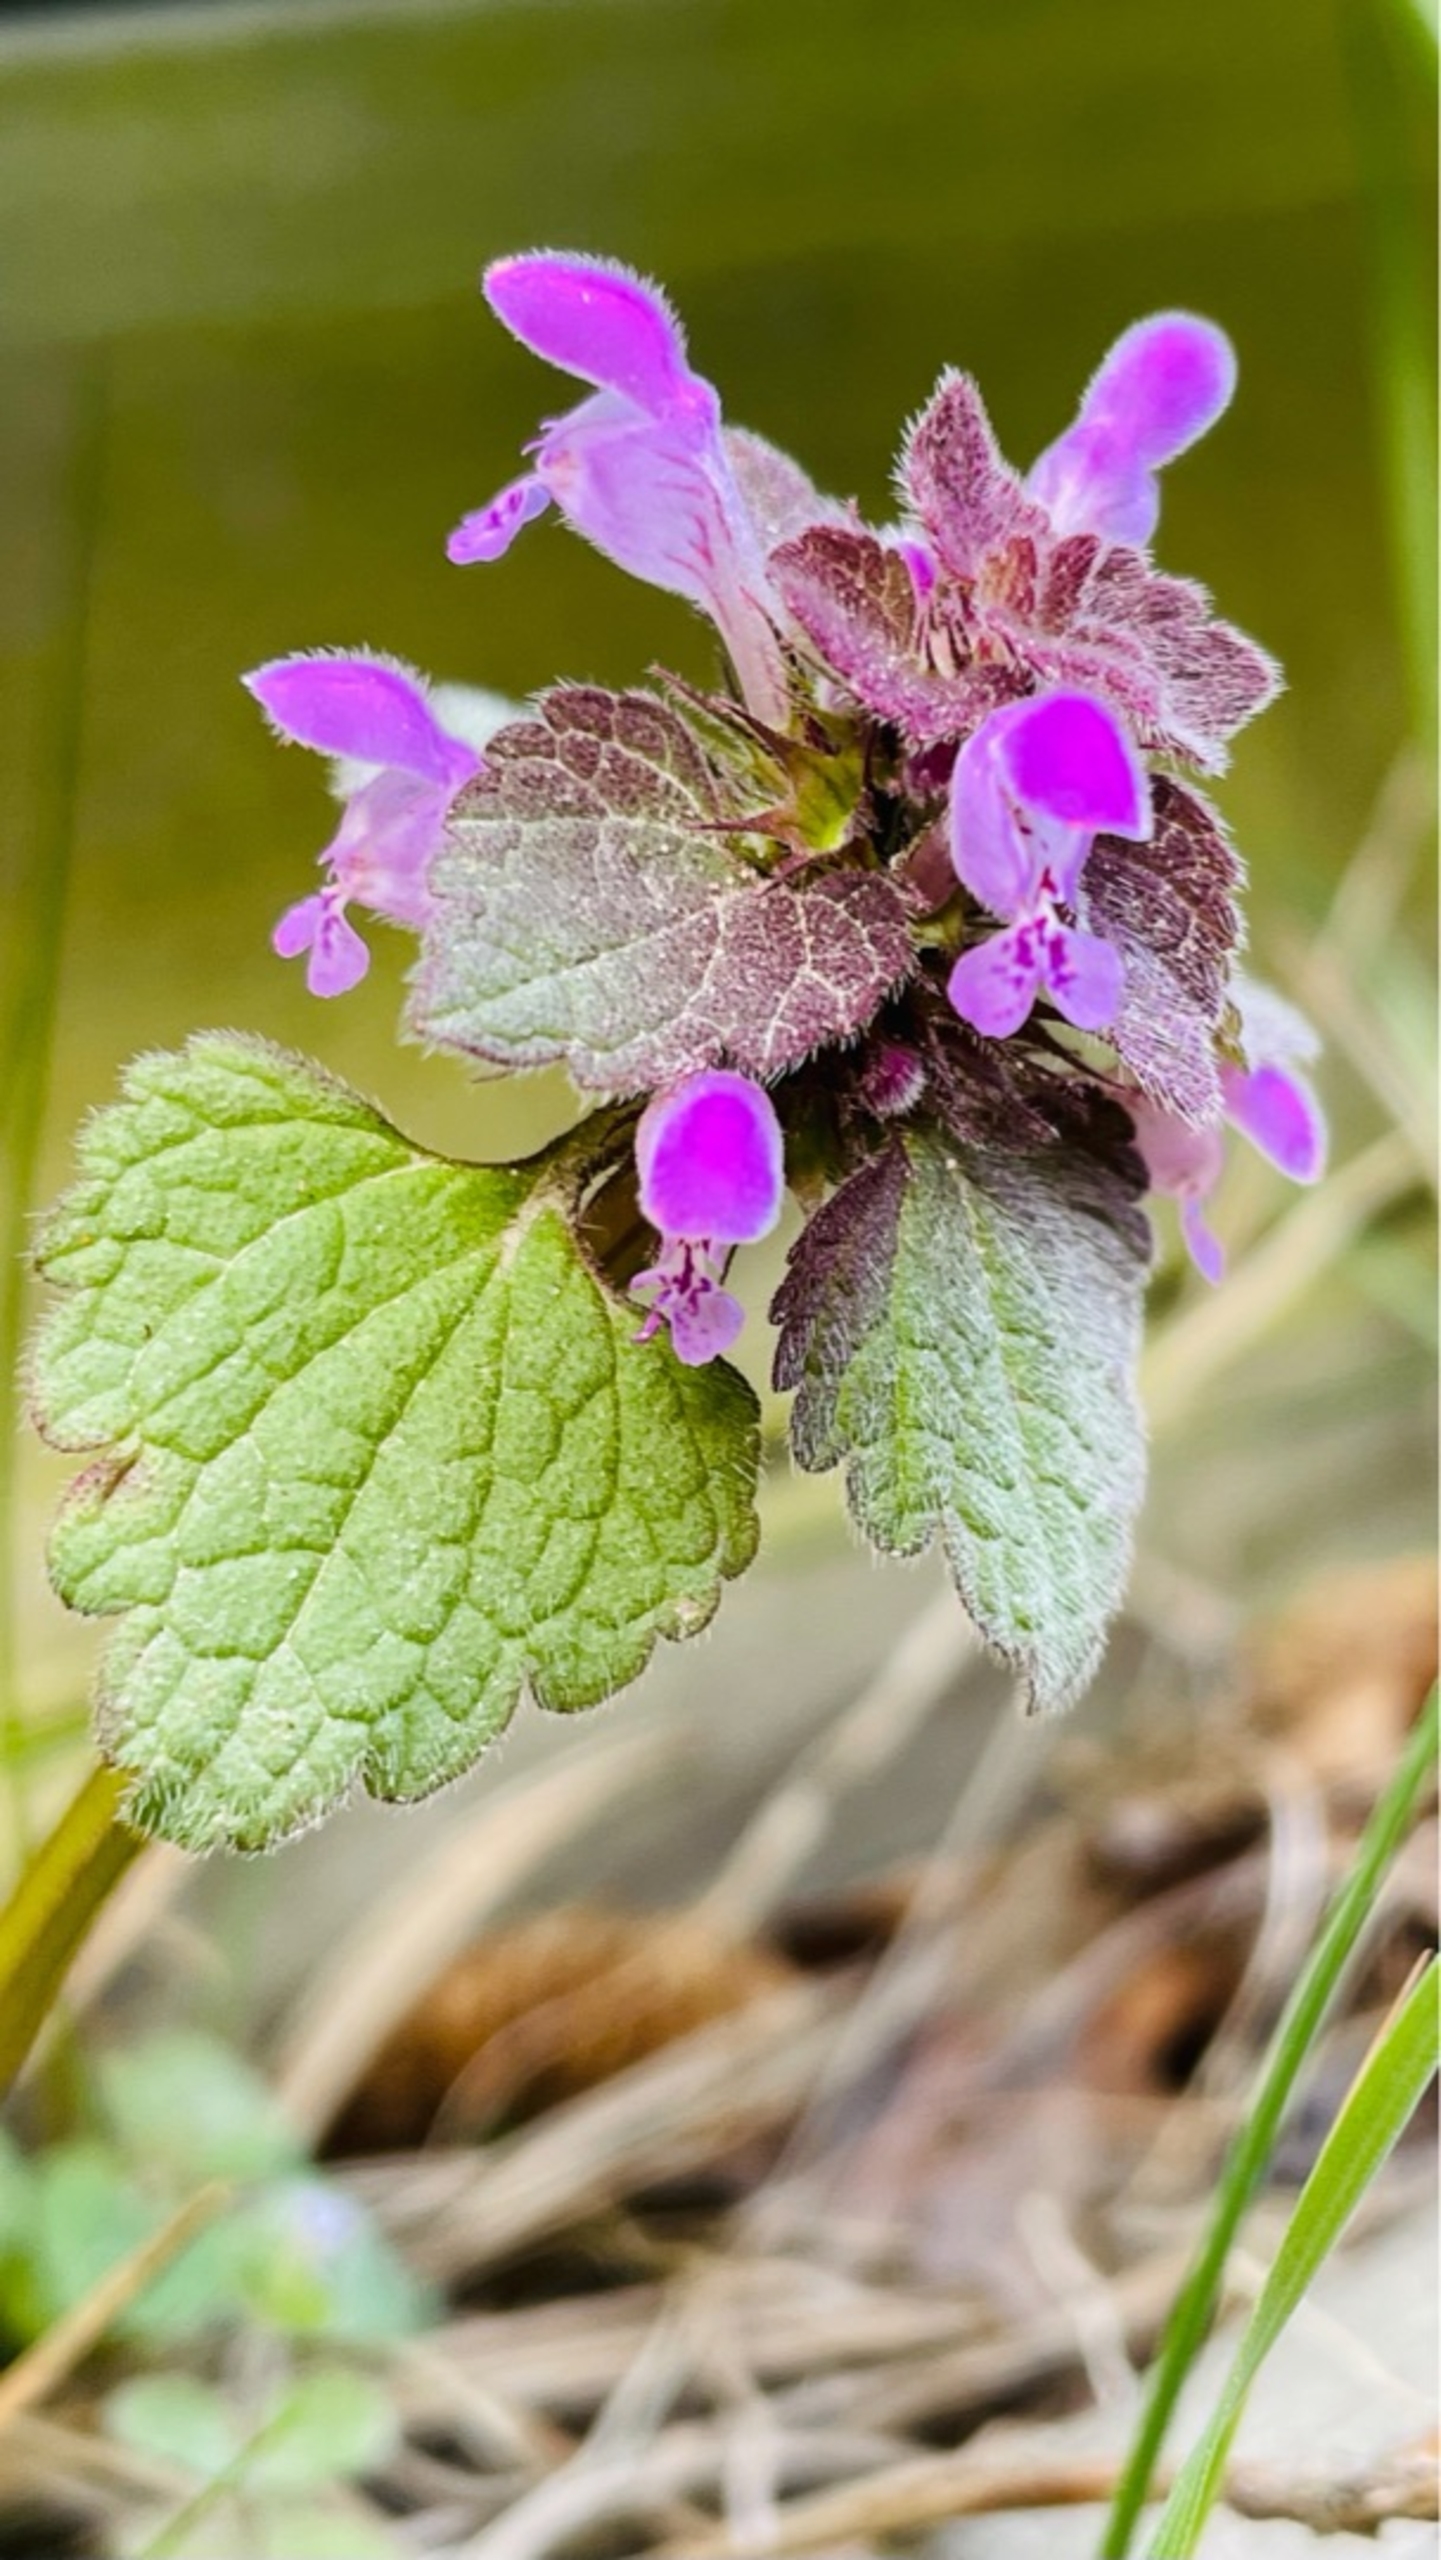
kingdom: Plantae
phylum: Tracheophyta
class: Magnoliopsida
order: Lamiales
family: Lamiaceae
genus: Lamium
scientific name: Lamium purpureum
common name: Rød tvetand
